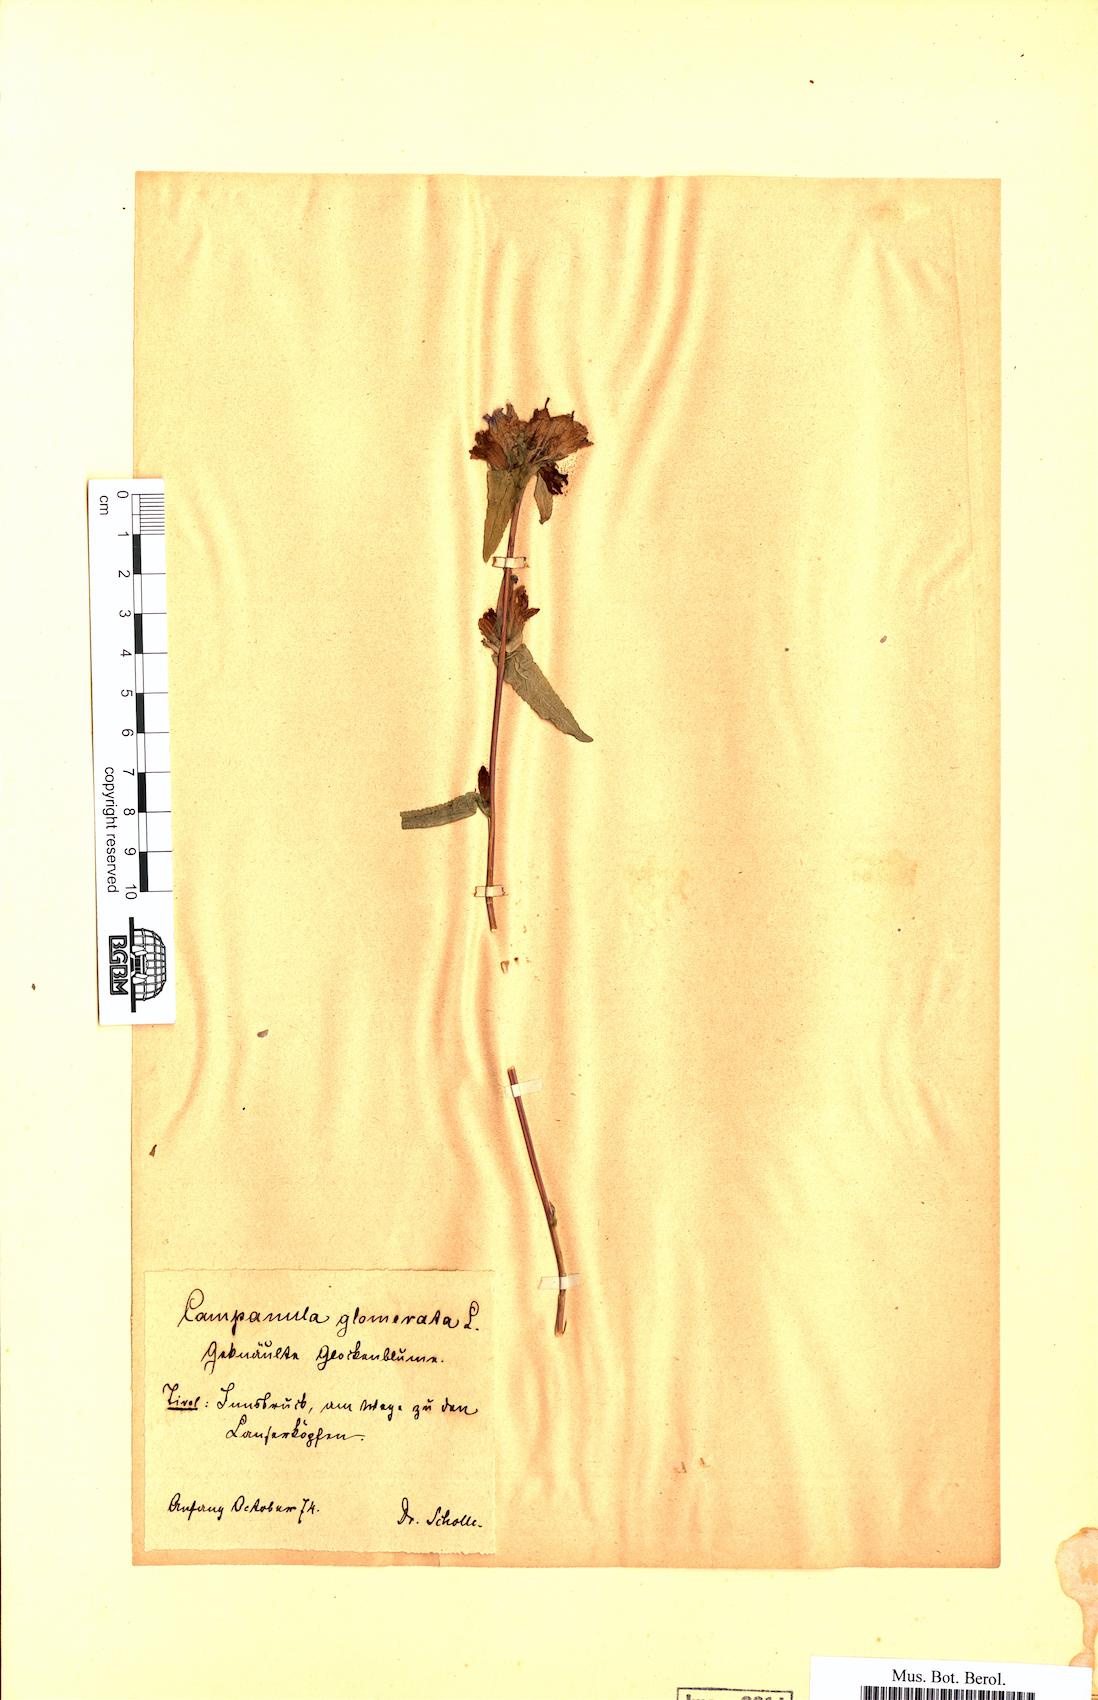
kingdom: Plantae
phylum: Tracheophyta
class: Magnoliopsida
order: Asterales
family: Campanulaceae
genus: Campanula
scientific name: Campanula glomerata
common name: Clustered bellflower
